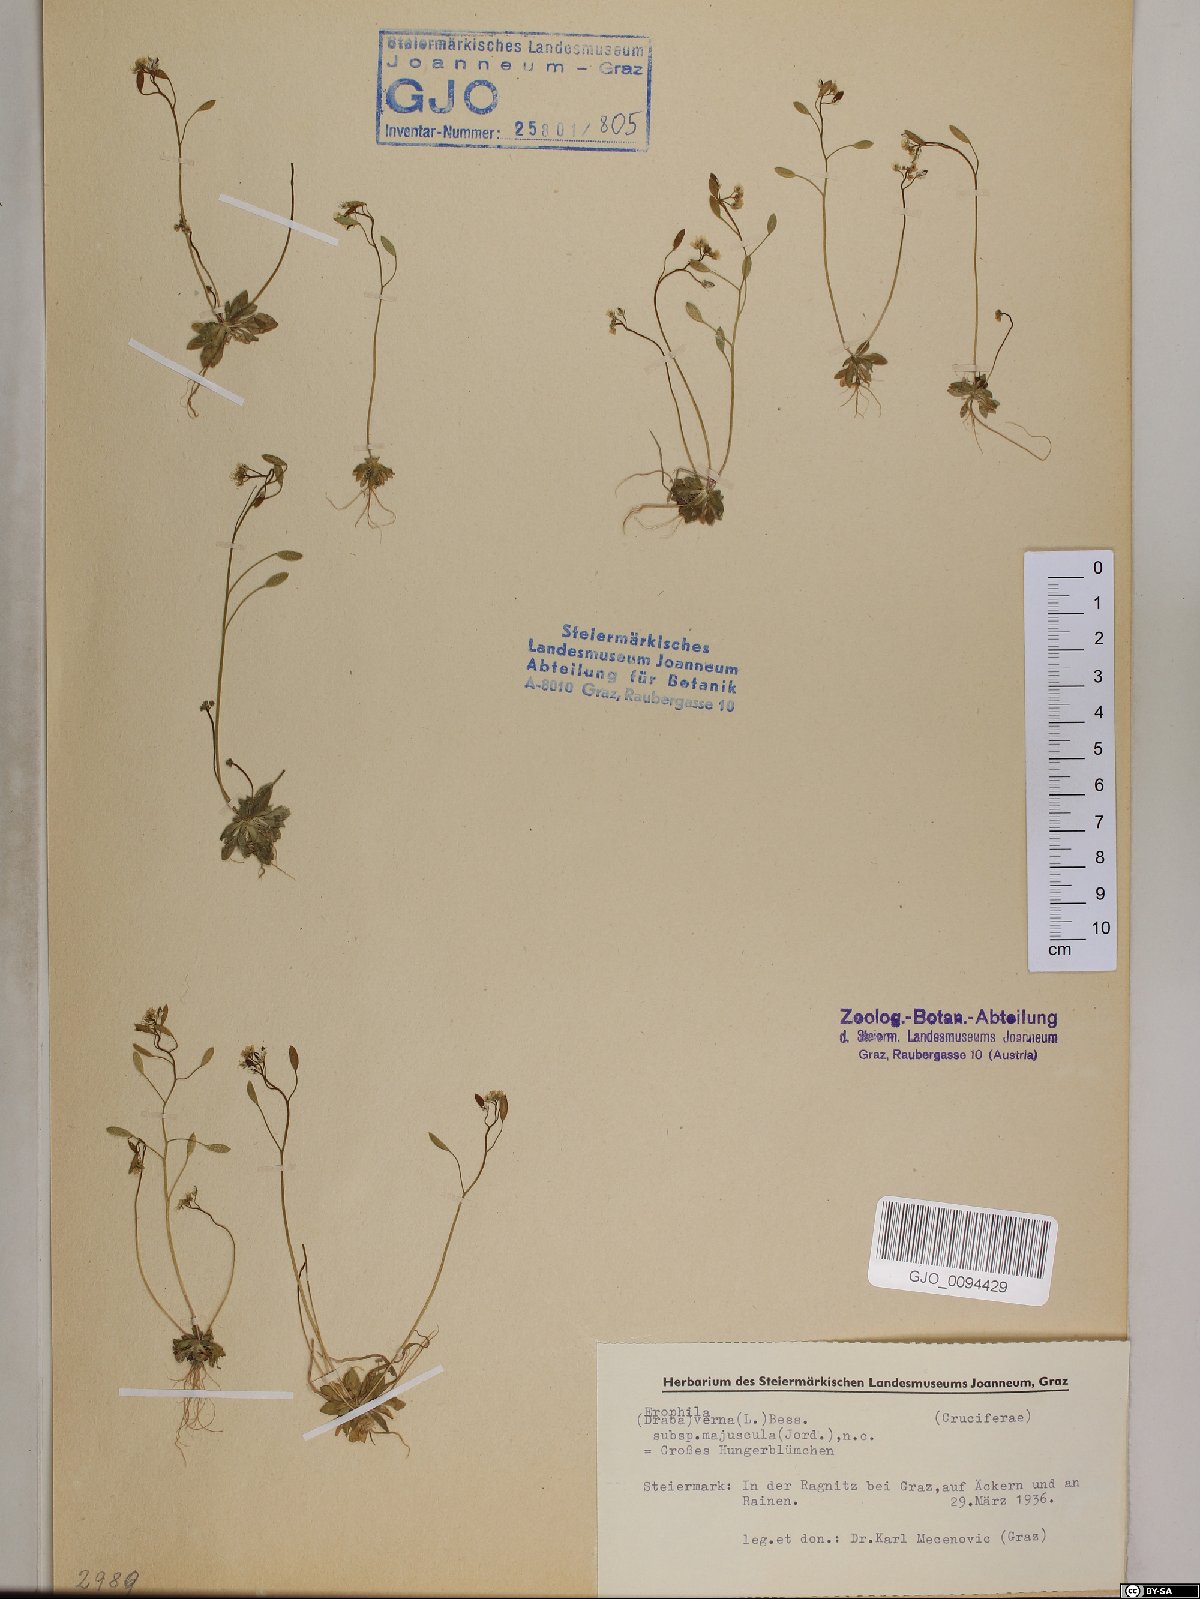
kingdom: Plantae
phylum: Tracheophyta
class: Magnoliopsida
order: Brassicales
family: Brassicaceae
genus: Draba
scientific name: Draba verna
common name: Spring draba
